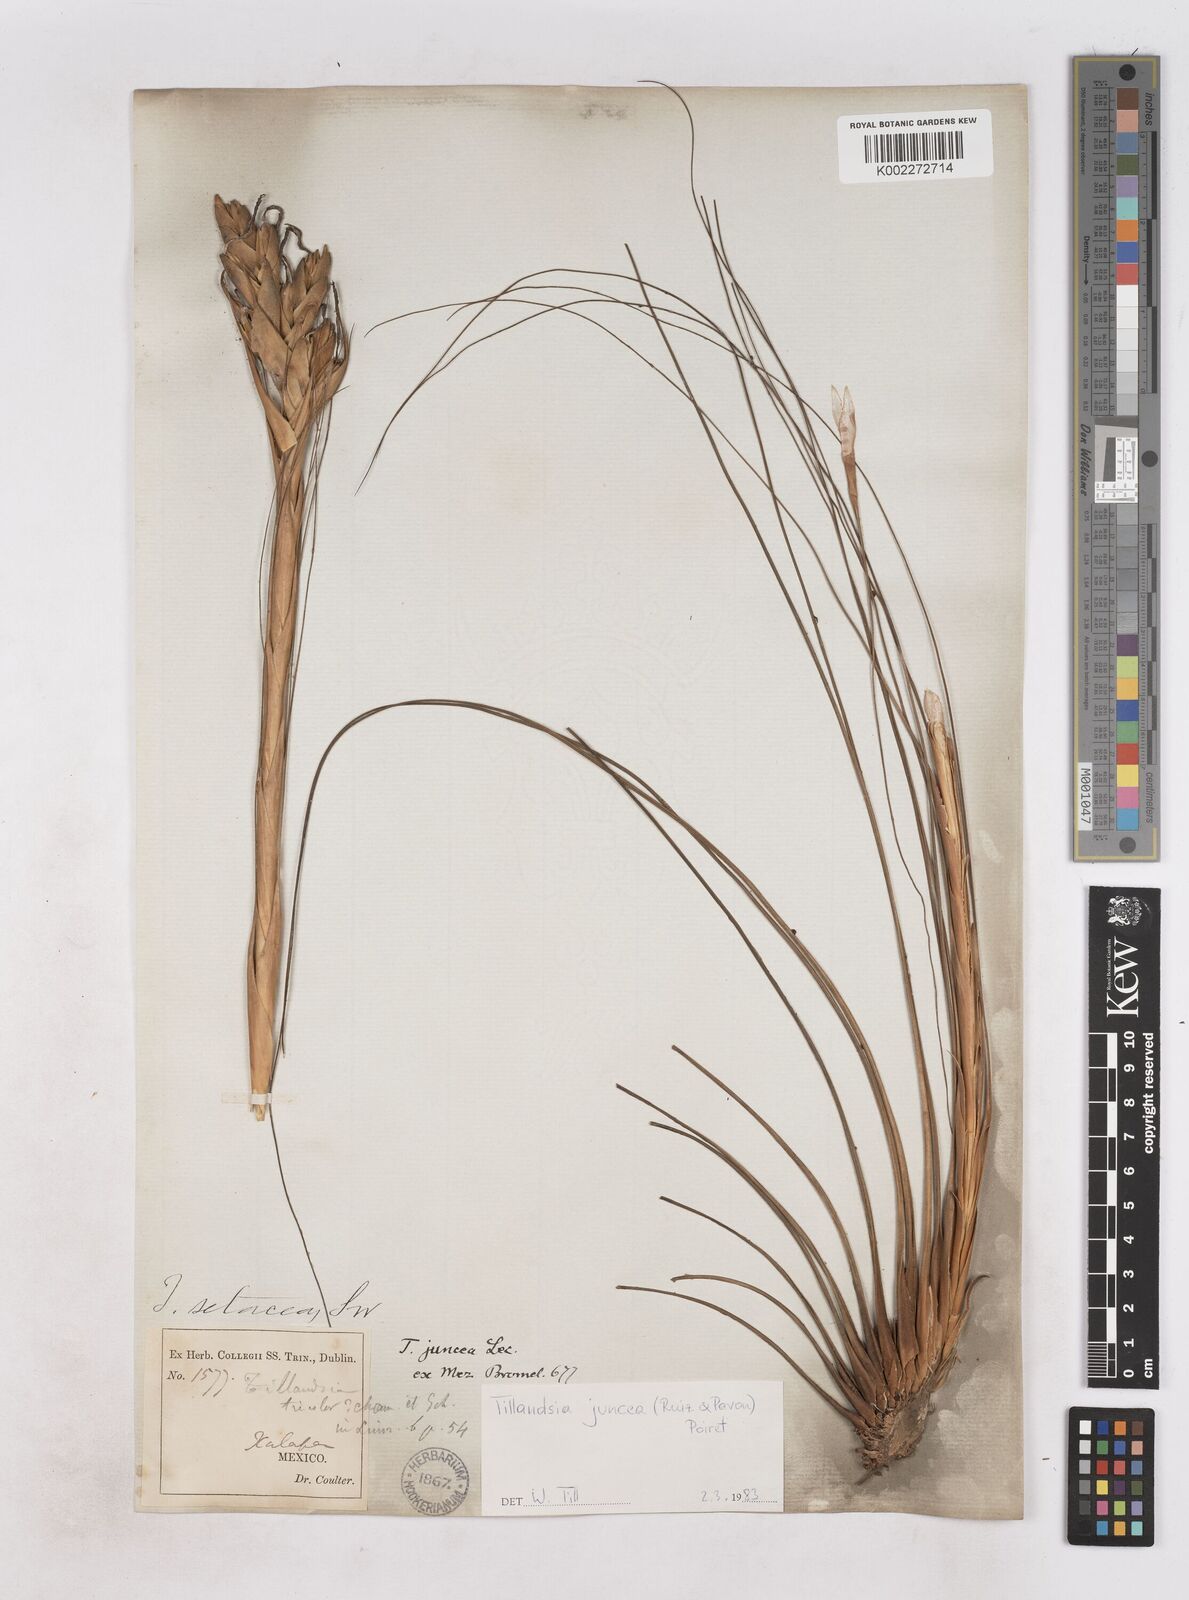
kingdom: Plantae
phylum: Tracheophyta
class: Liliopsida
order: Poales
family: Bromeliaceae
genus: Tillandsia
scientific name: Tillandsia juncea
